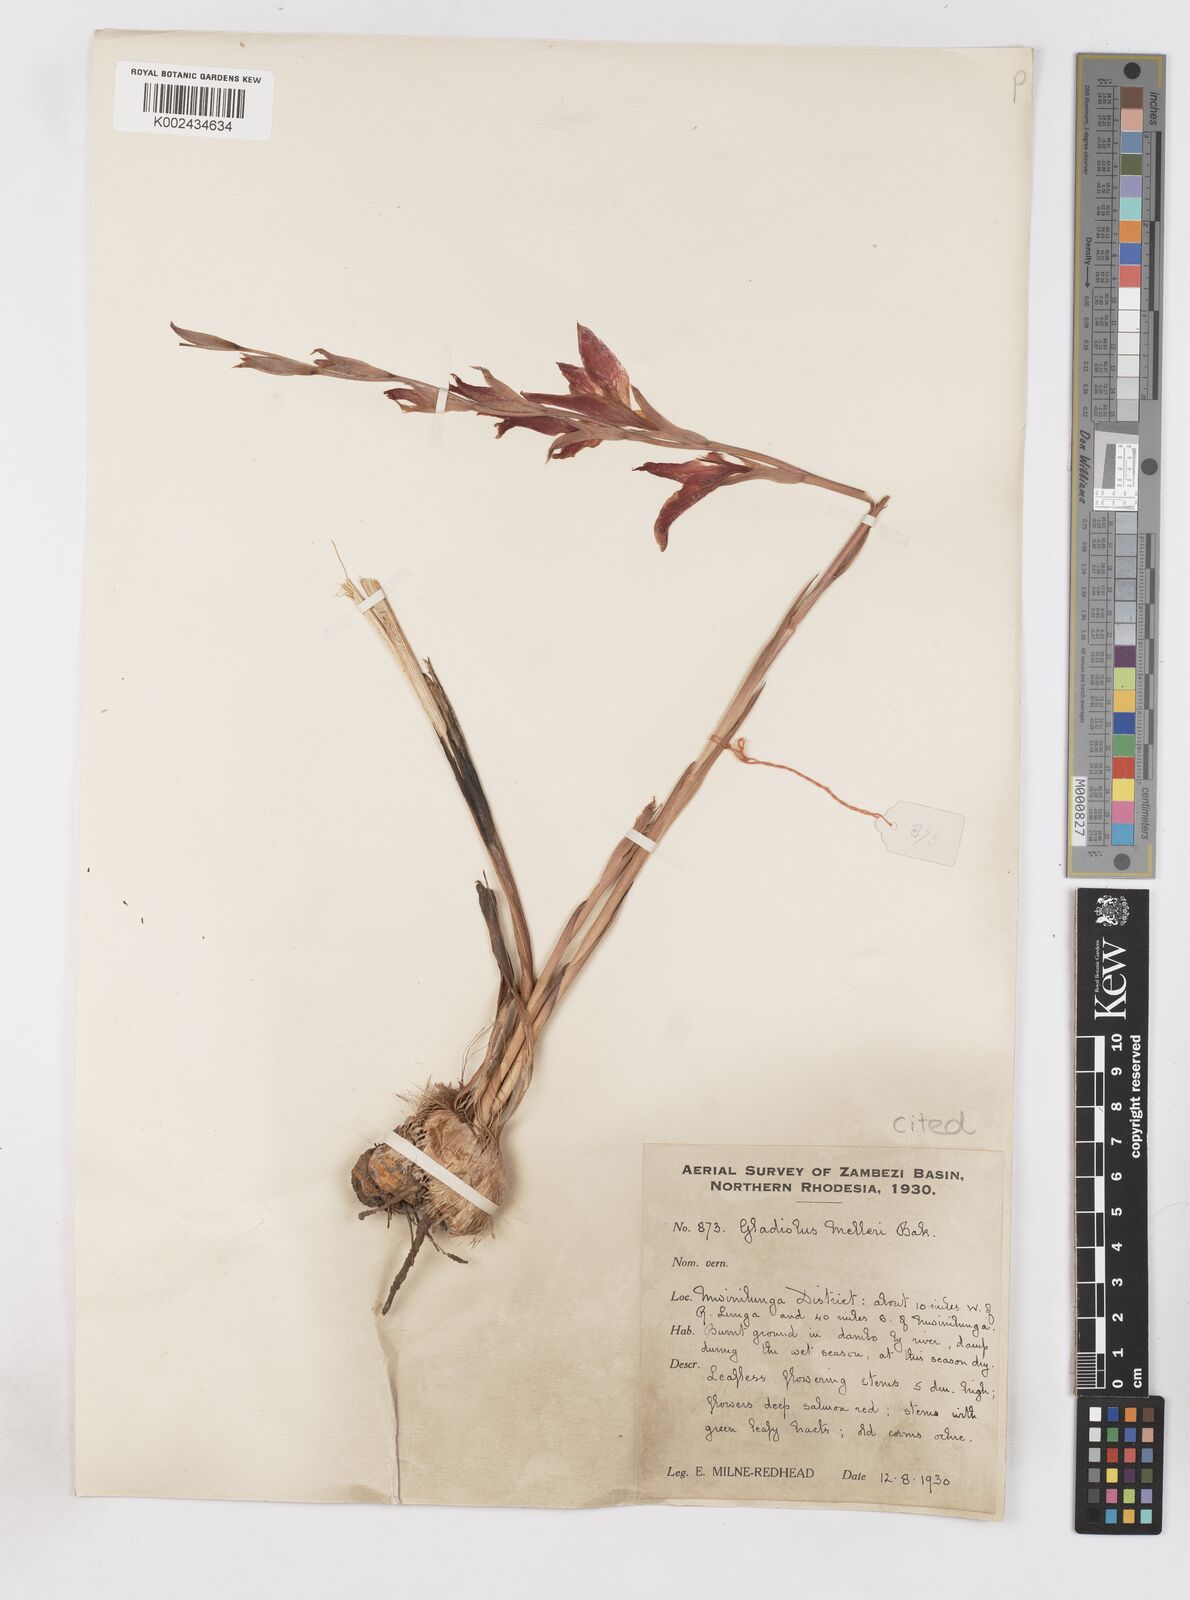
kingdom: Plantae
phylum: Tracheophyta
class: Liliopsida
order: Asparagales
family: Iridaceae
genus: Gladiolus
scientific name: Gladiolus melleri
